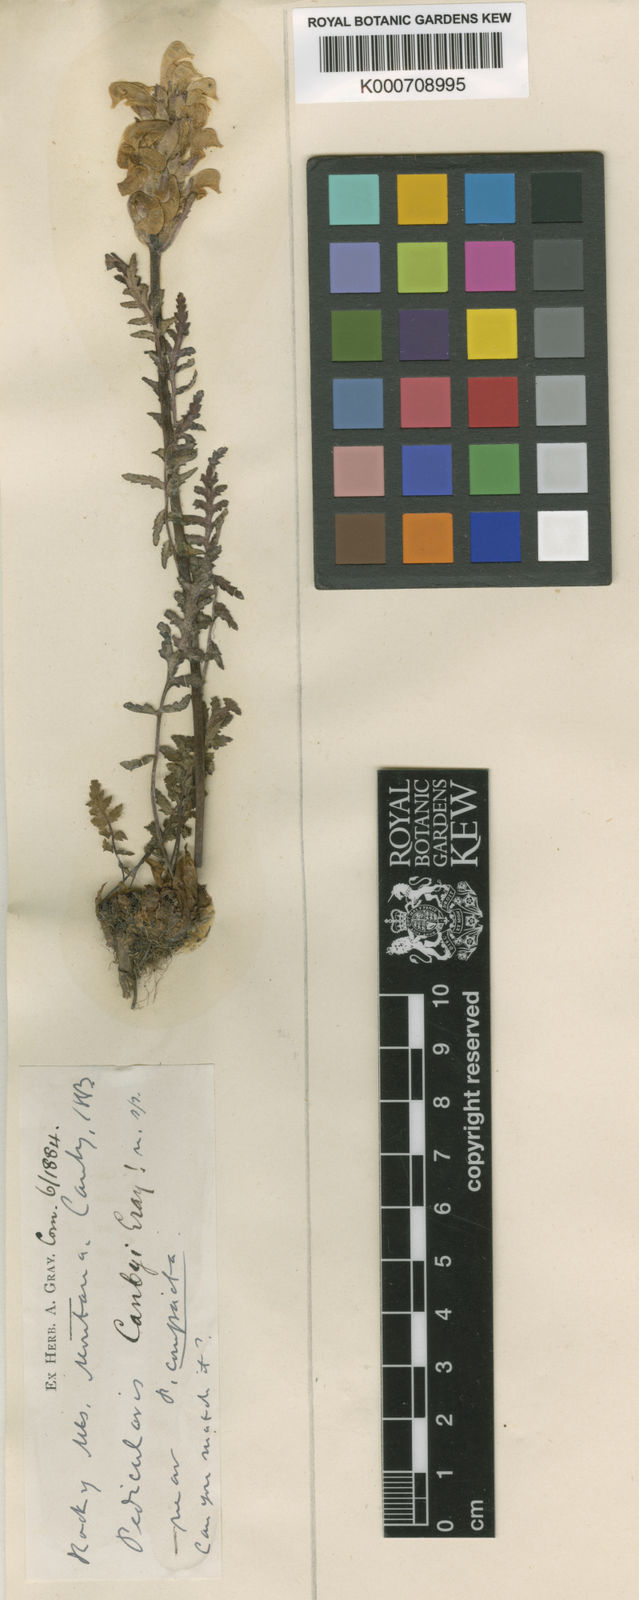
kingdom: Plantae
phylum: Tracheophyta
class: Magnoliopsida
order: Lamiales
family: Orobanchaceae
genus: Pedicularis
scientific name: Pedicularis bracteosa
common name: Bracted lousewort
